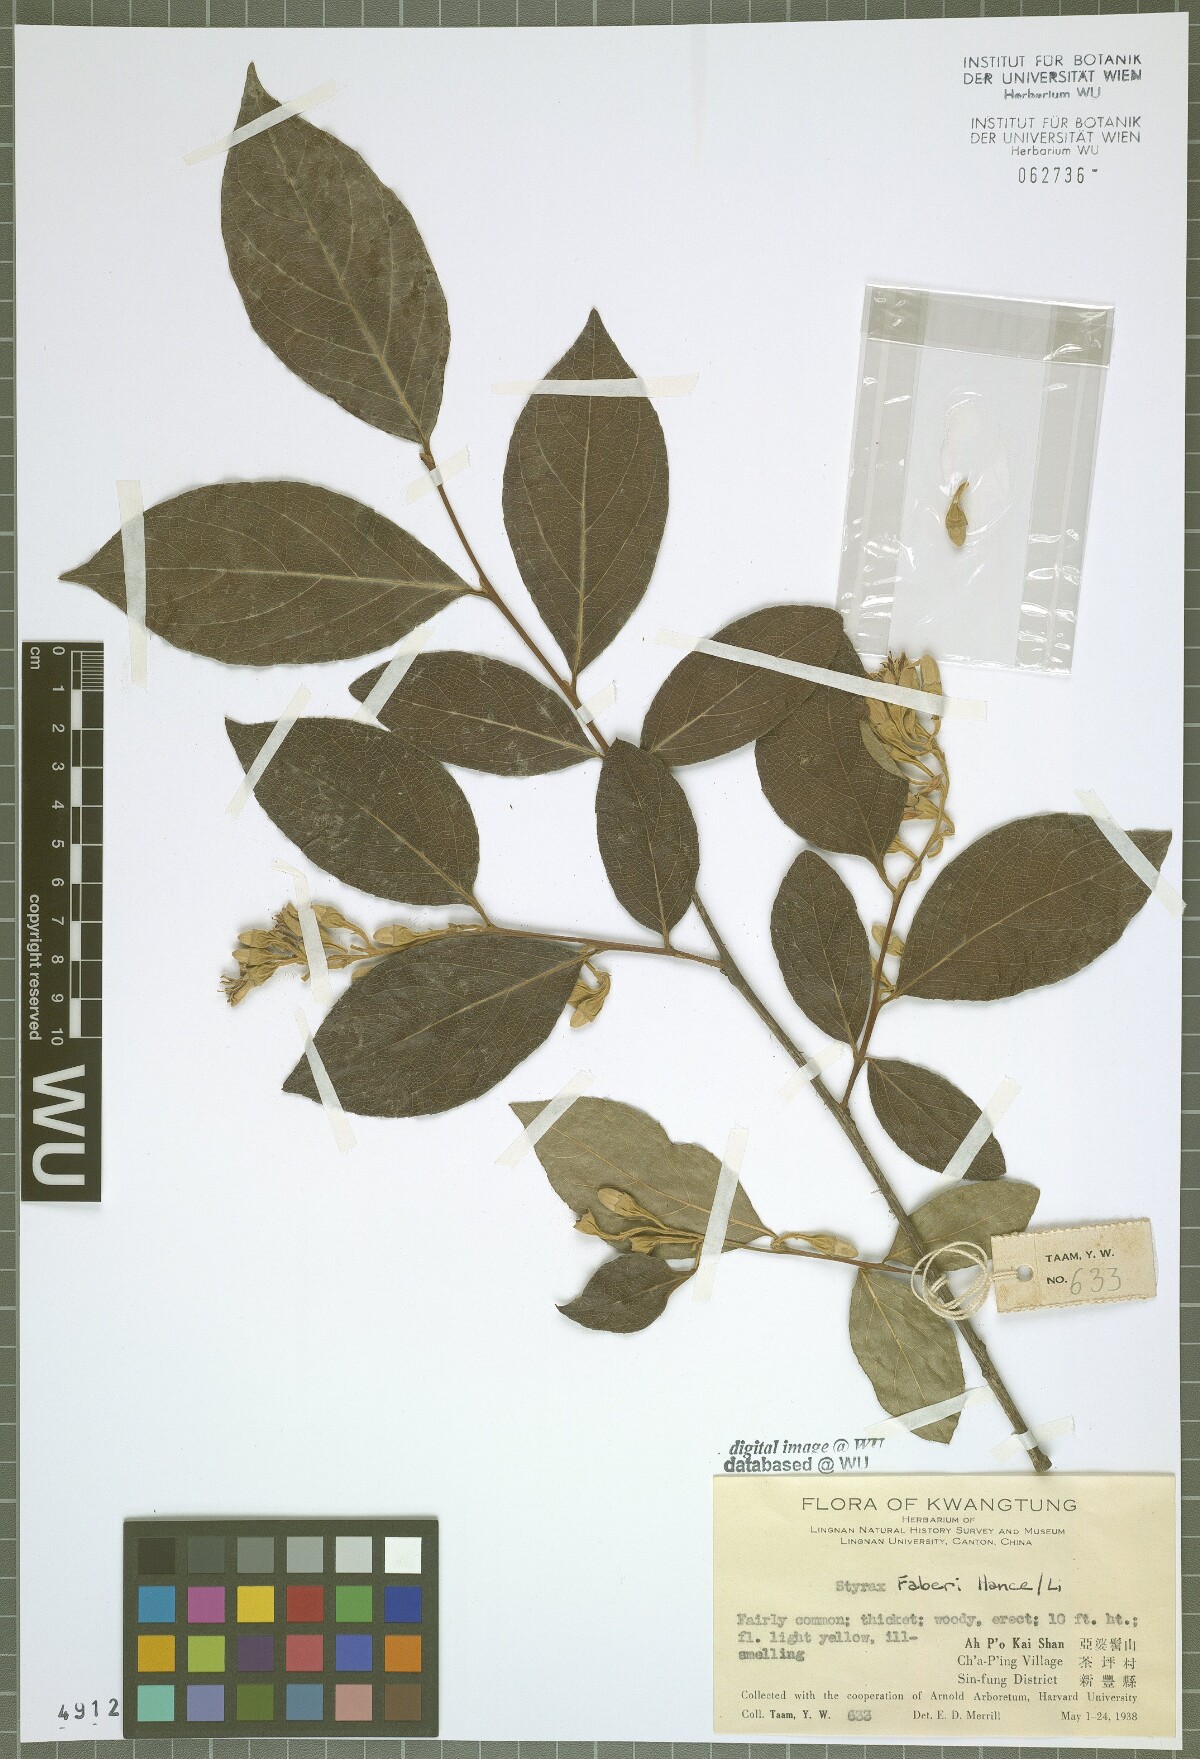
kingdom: Plantae
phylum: Tracheophyta
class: Magnoliopsida
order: Ericales
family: Styracaceae
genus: Styrax
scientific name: Styrax faberi
